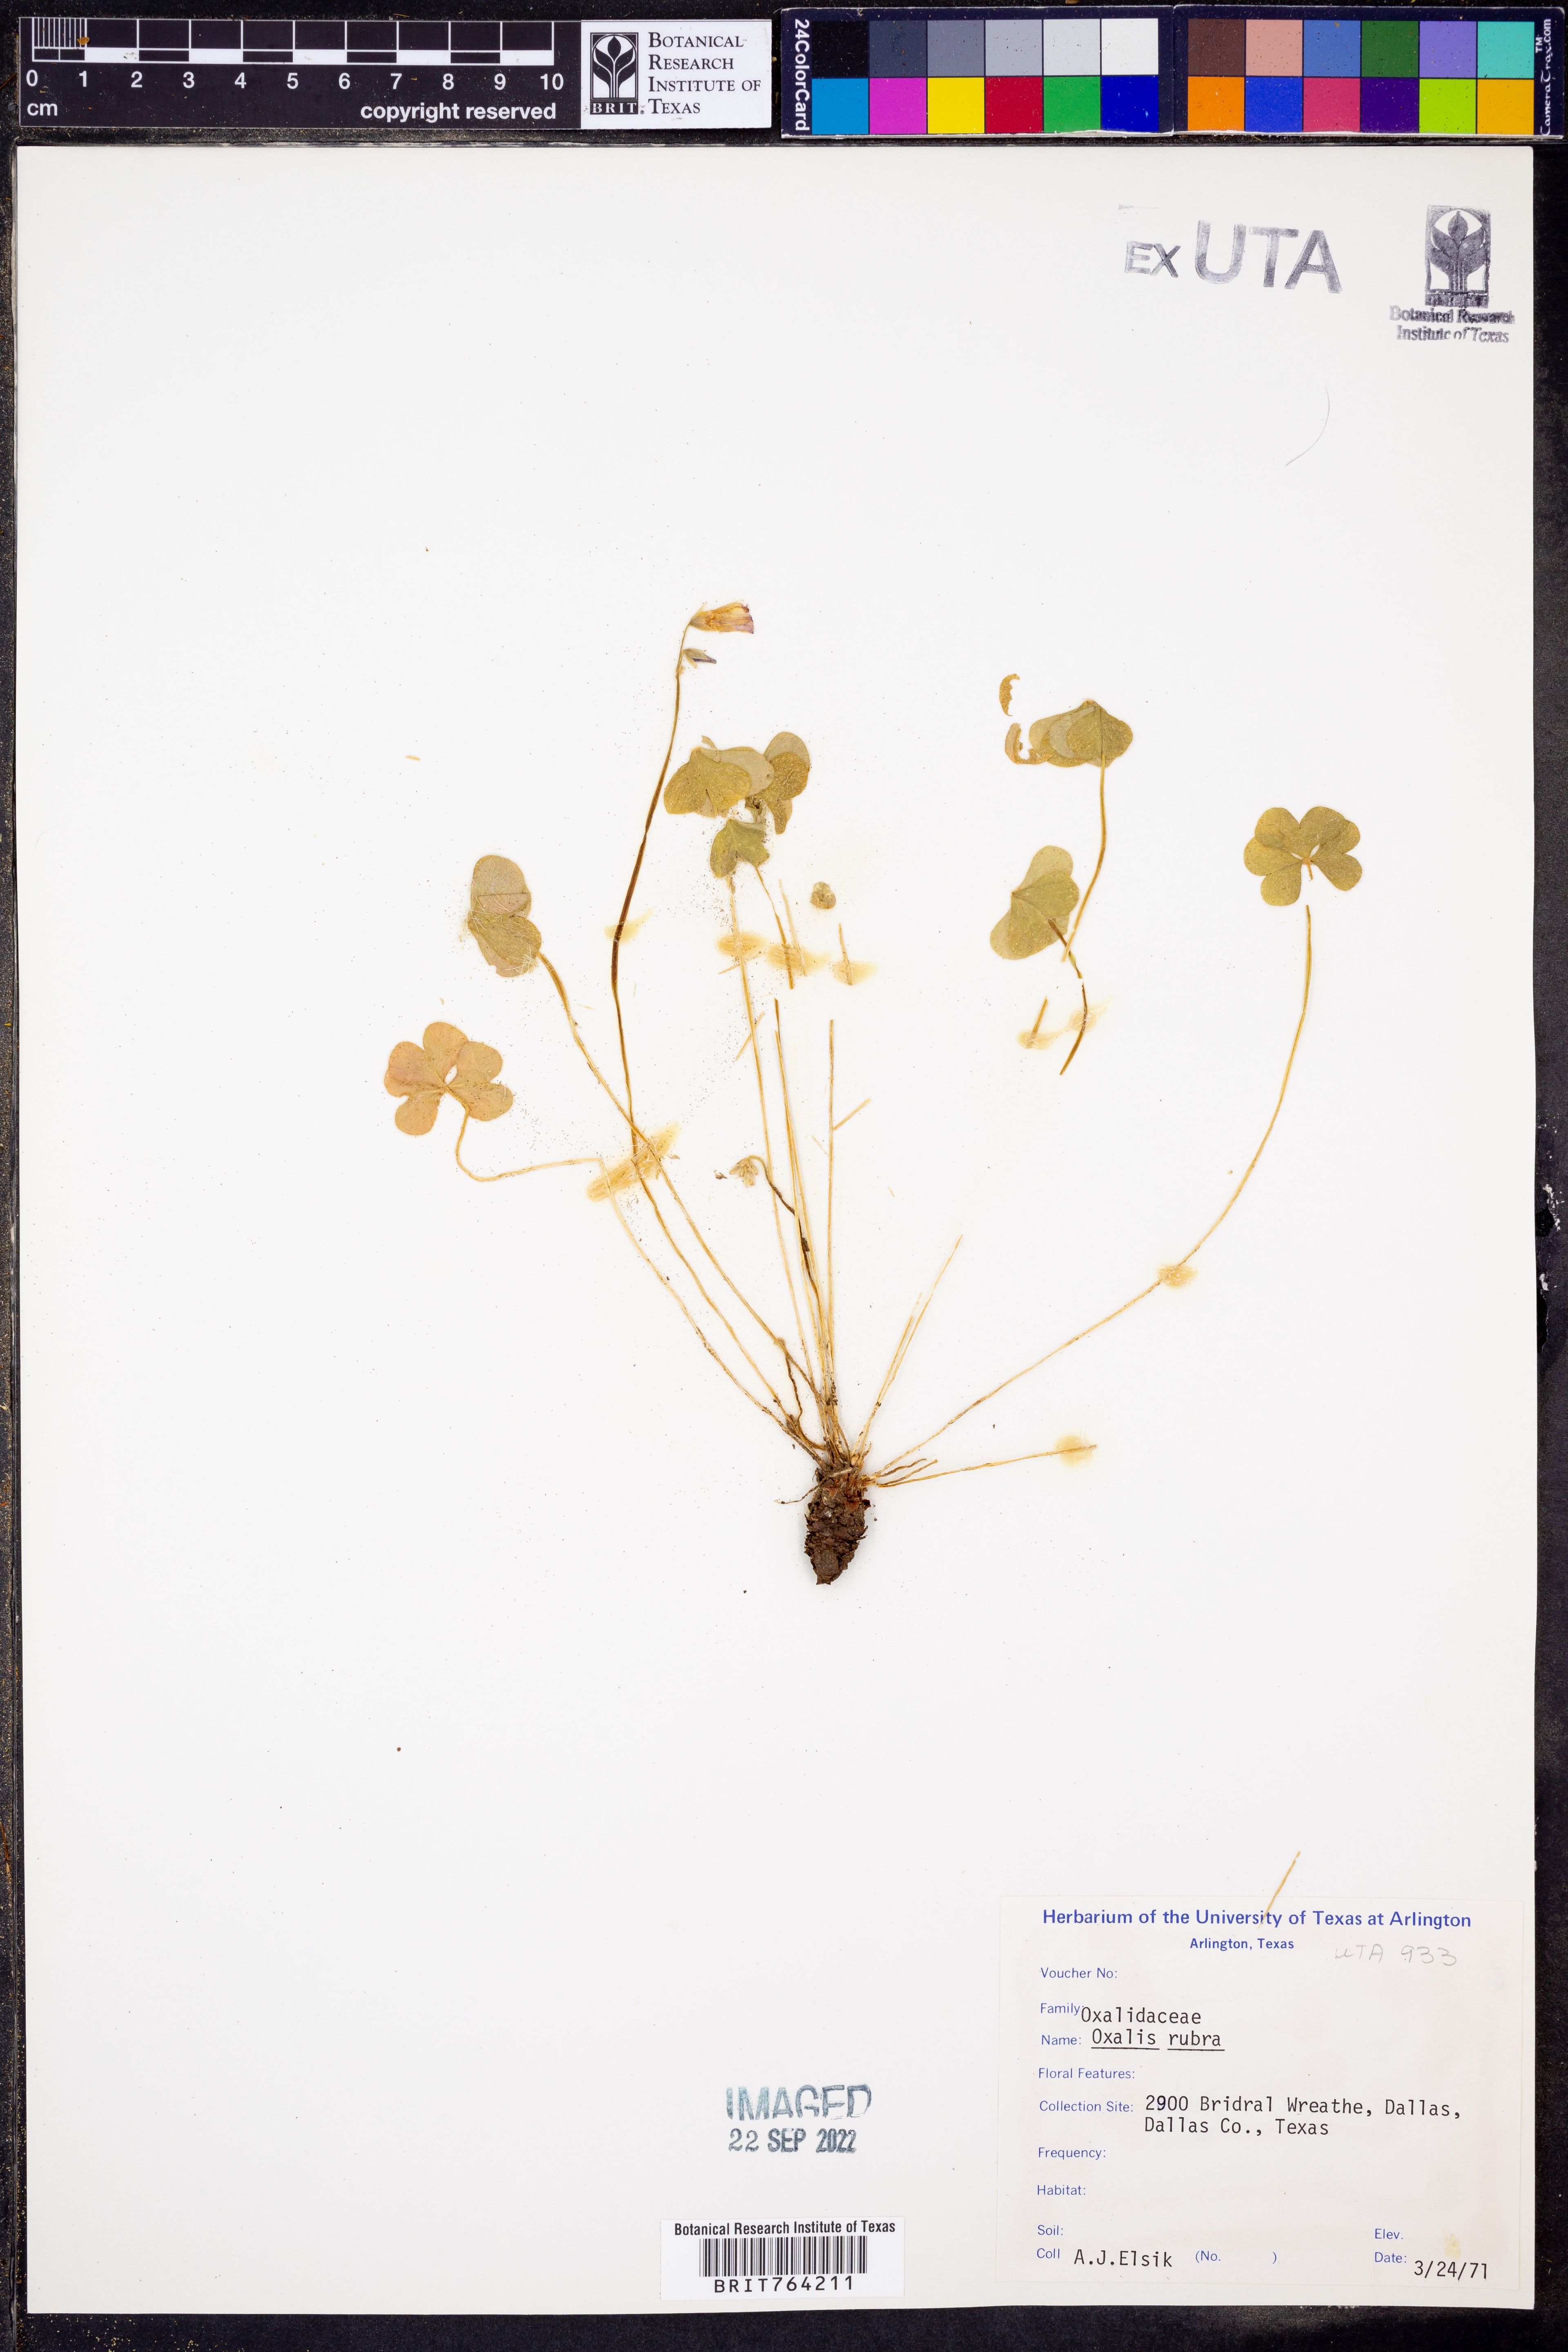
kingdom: Plantae
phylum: Tracheophyta
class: Magnoliopsida
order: Oxalidales
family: Oxalidaceae
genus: Oxalis
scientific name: Oxalis articulata
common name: Pink-sorrel
